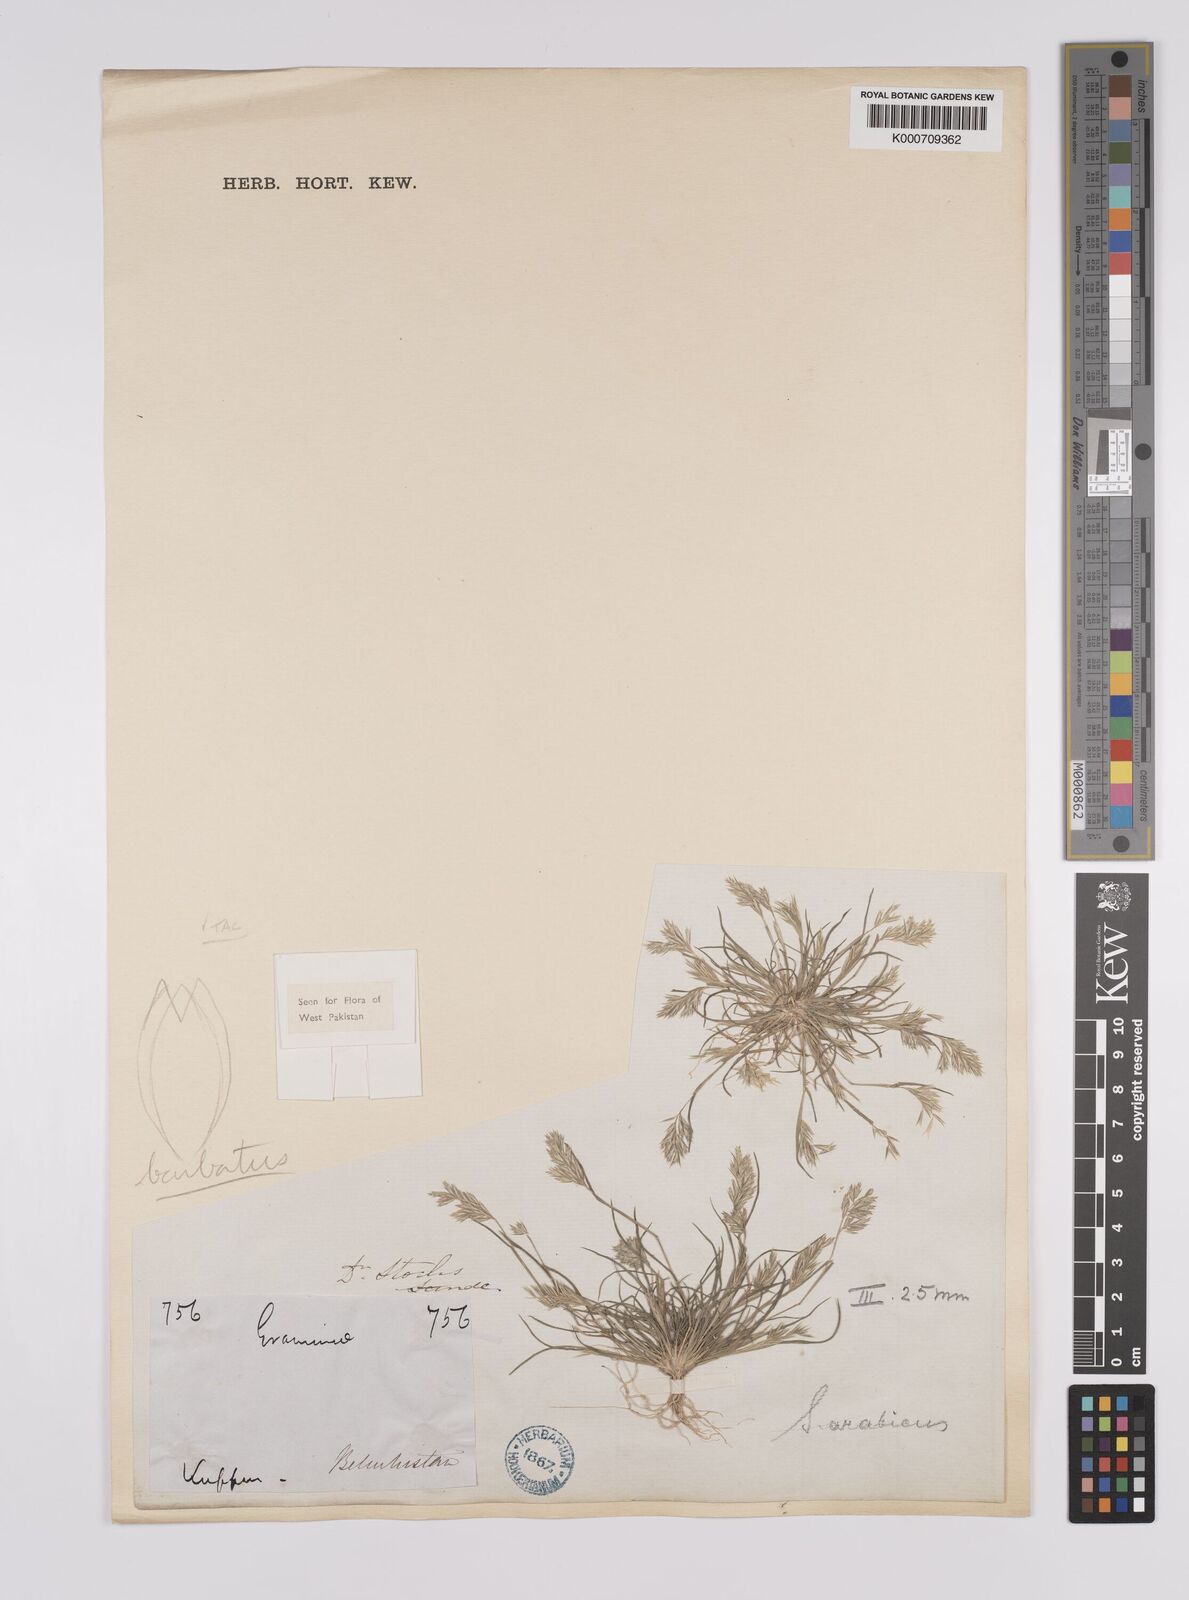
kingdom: Plantae
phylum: Tracheophyta
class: Liliopsida
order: Poales
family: Poaceae
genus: Schismus
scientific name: Schismus arabicus
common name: Arabian schismus
